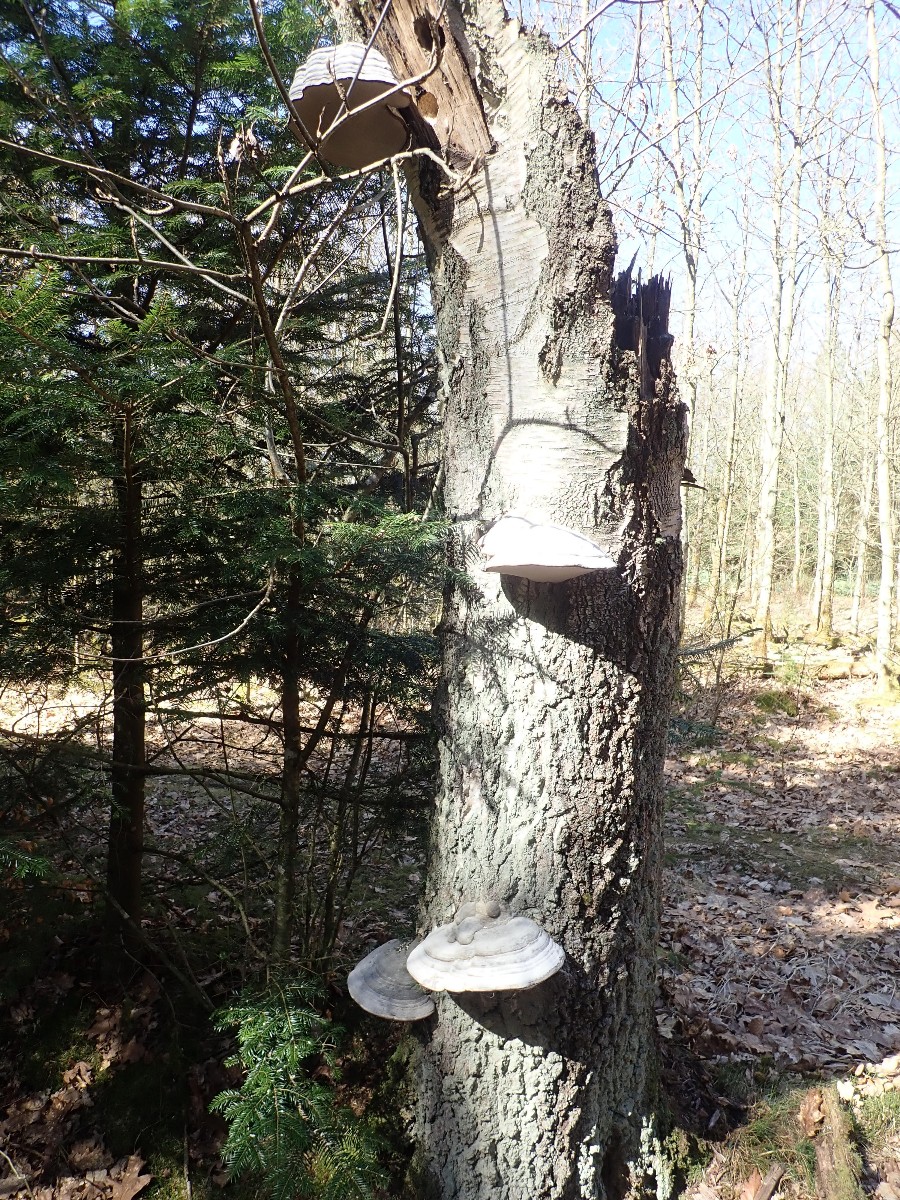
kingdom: Fungi
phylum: Basidiomycota
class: Agaricomycetes
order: Polyporales
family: Polyporaceae
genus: Fomes
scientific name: Fomes fomentarius
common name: tøndersvamp
